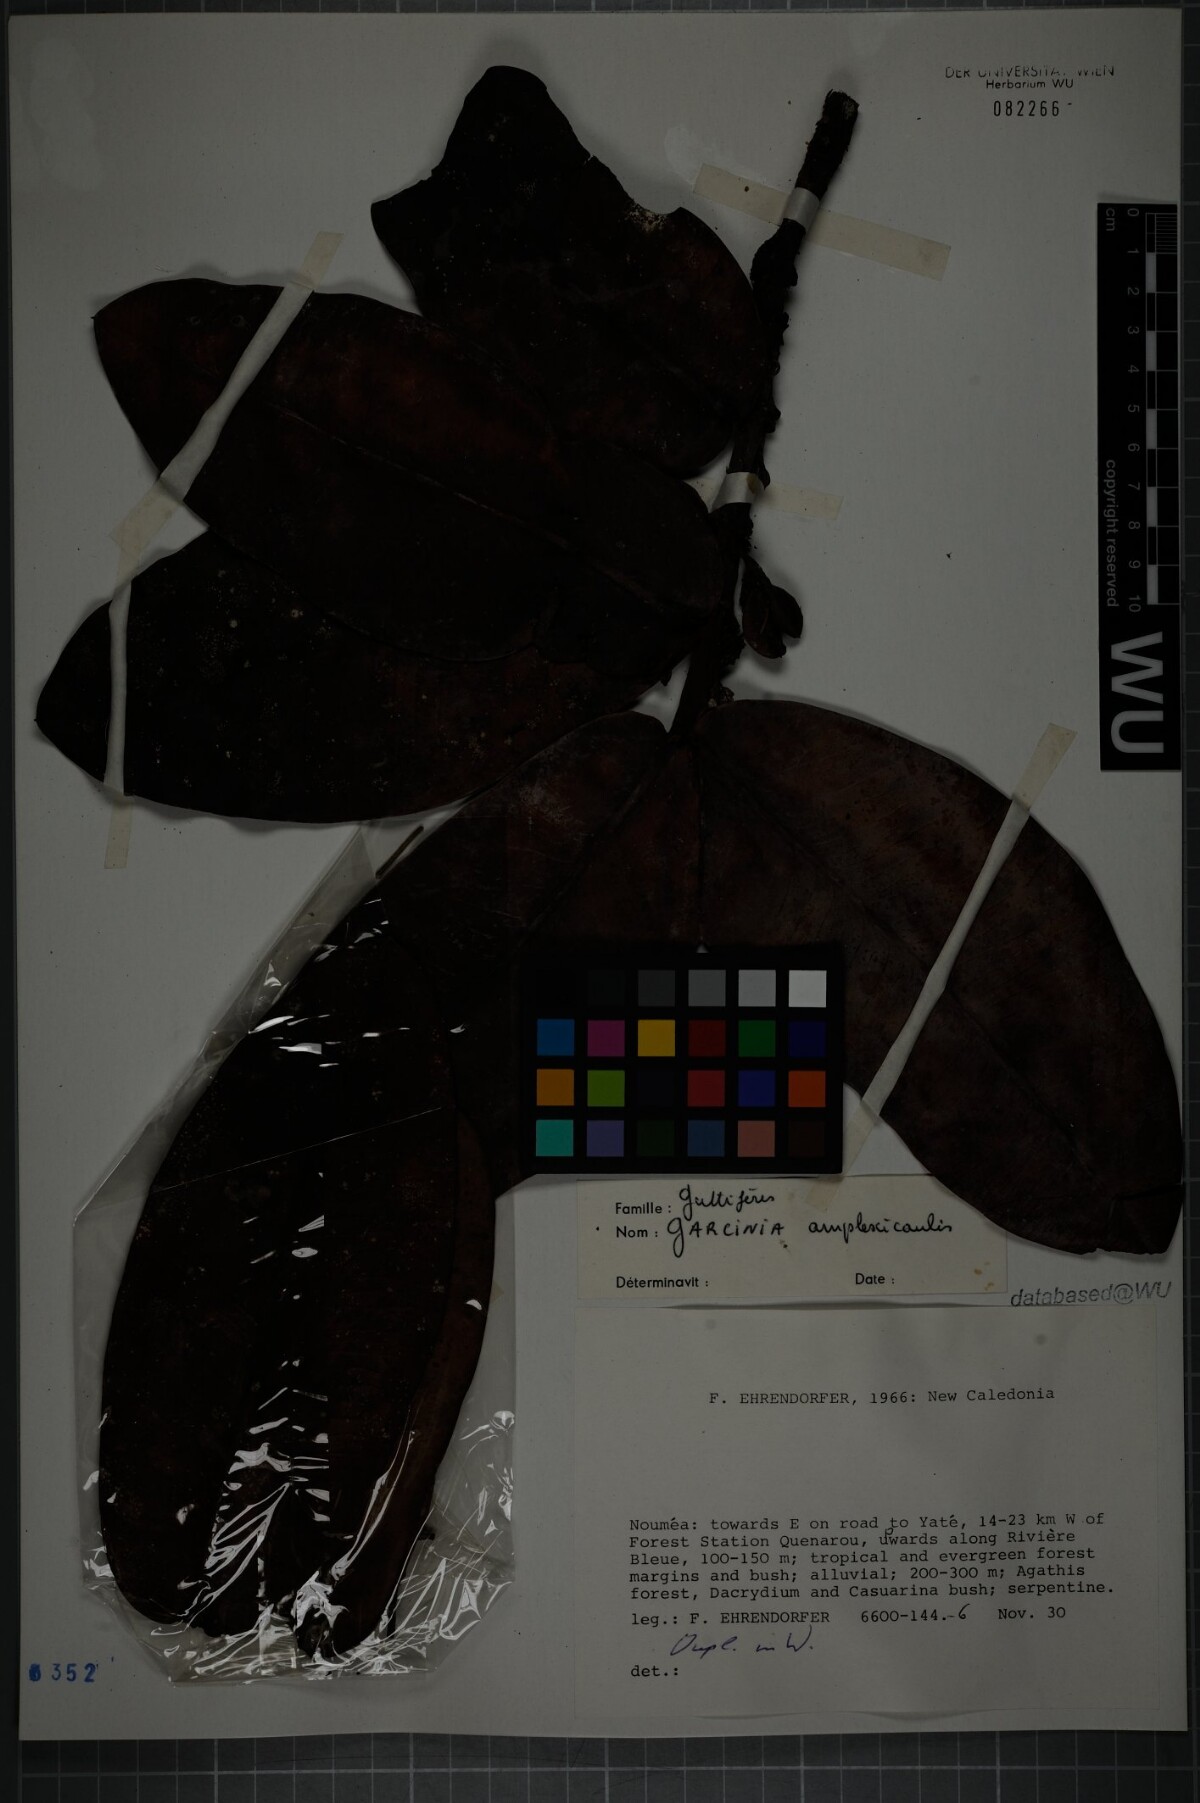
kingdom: Plantae
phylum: Tracheophyta
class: Magnoliopsida
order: Malpighiales
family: Clusiaceae
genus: Garcinia
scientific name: Garcinia amplexicaulis
